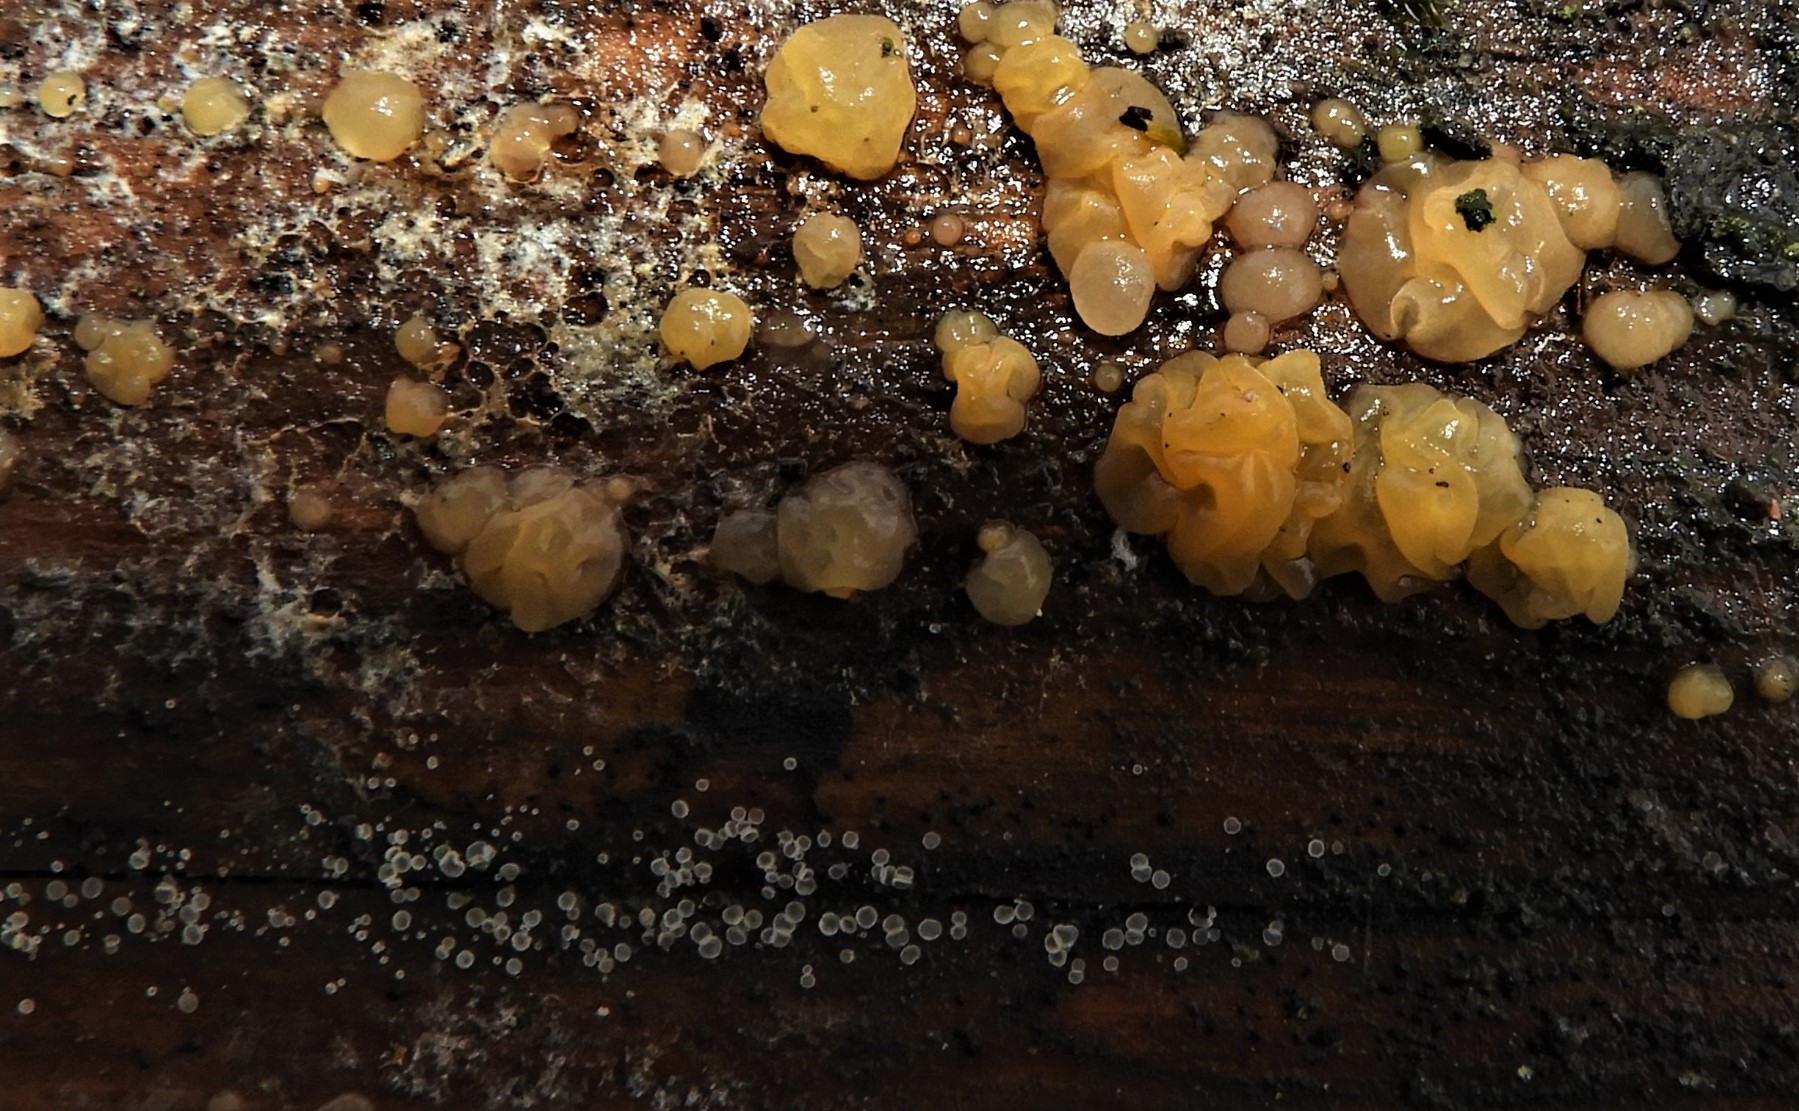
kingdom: Fungi
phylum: Basidiomycota
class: Dacrymycetes
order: Dacrymycetales
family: Dacrymycetaceae
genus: Dacrymyces
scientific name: Dacrymyces lacrymalis
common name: rynket tåresvamp
